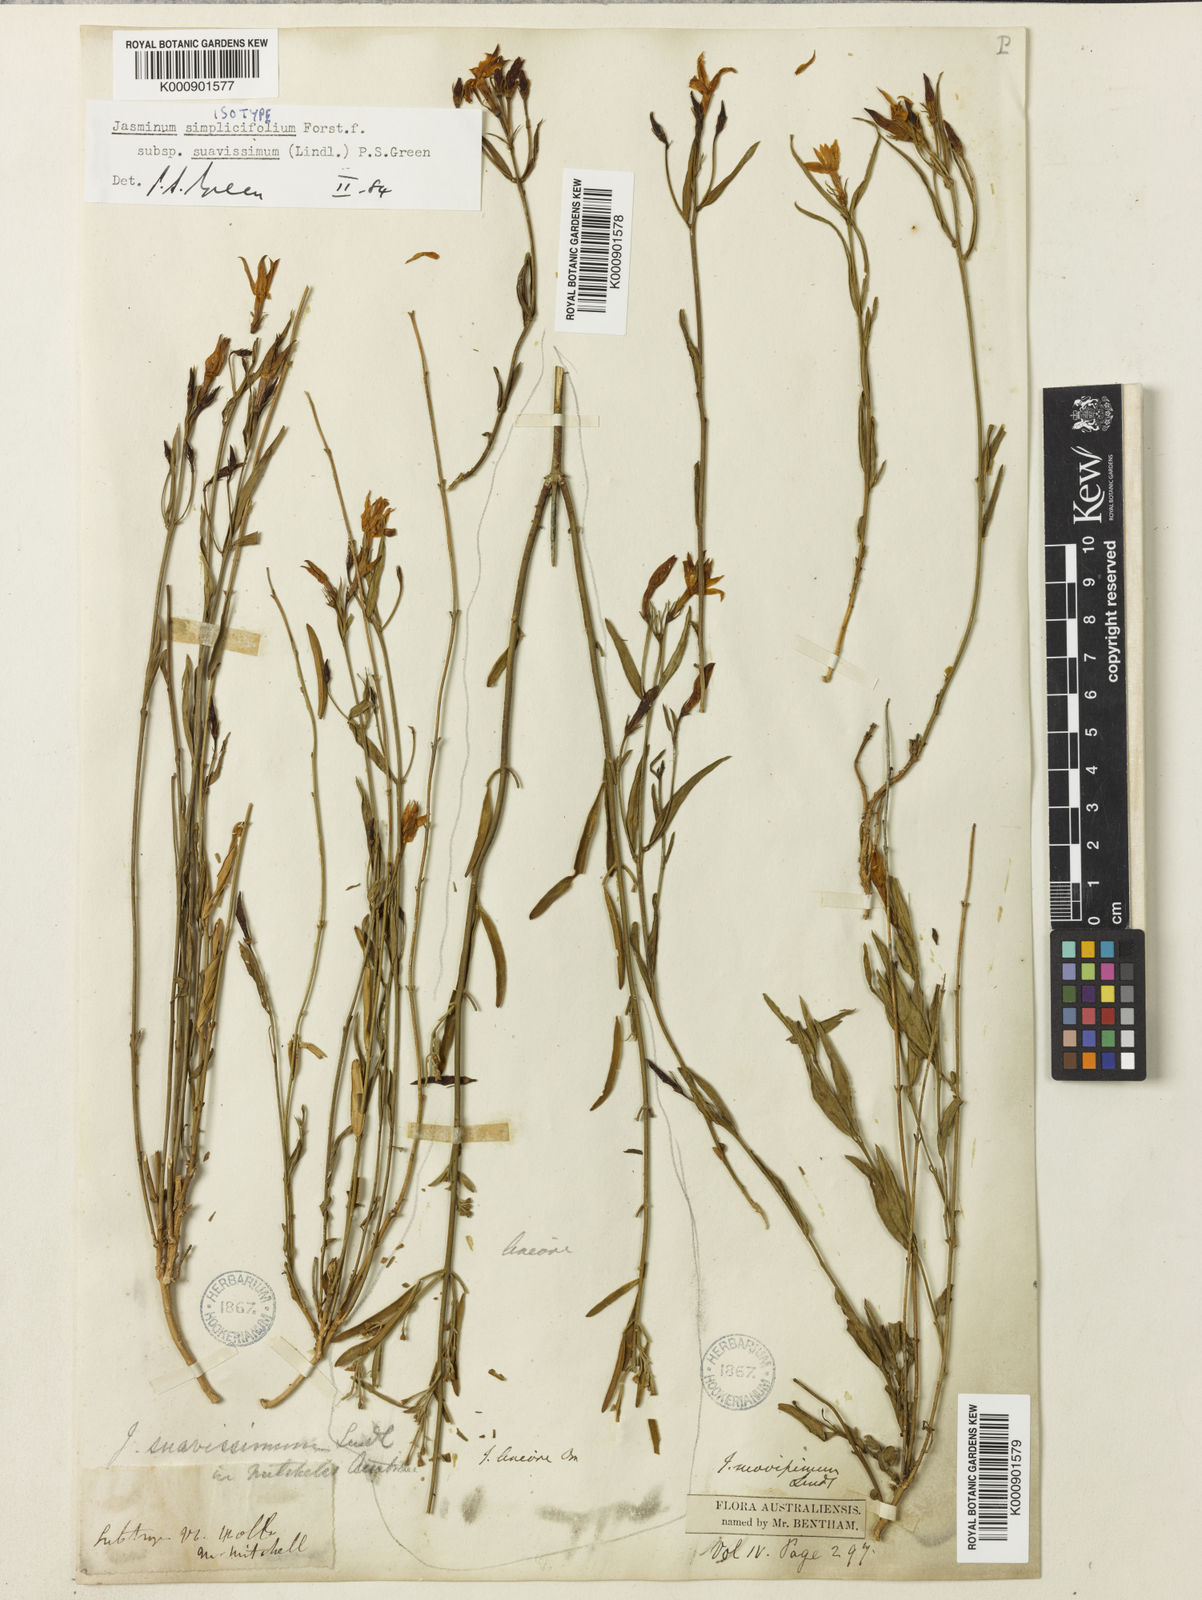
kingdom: Plantae
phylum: Tracheophyta
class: Magnoliopsida
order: Lamiales
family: Oleaceae
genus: Jasminum
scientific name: Jasminum simplicifolium
